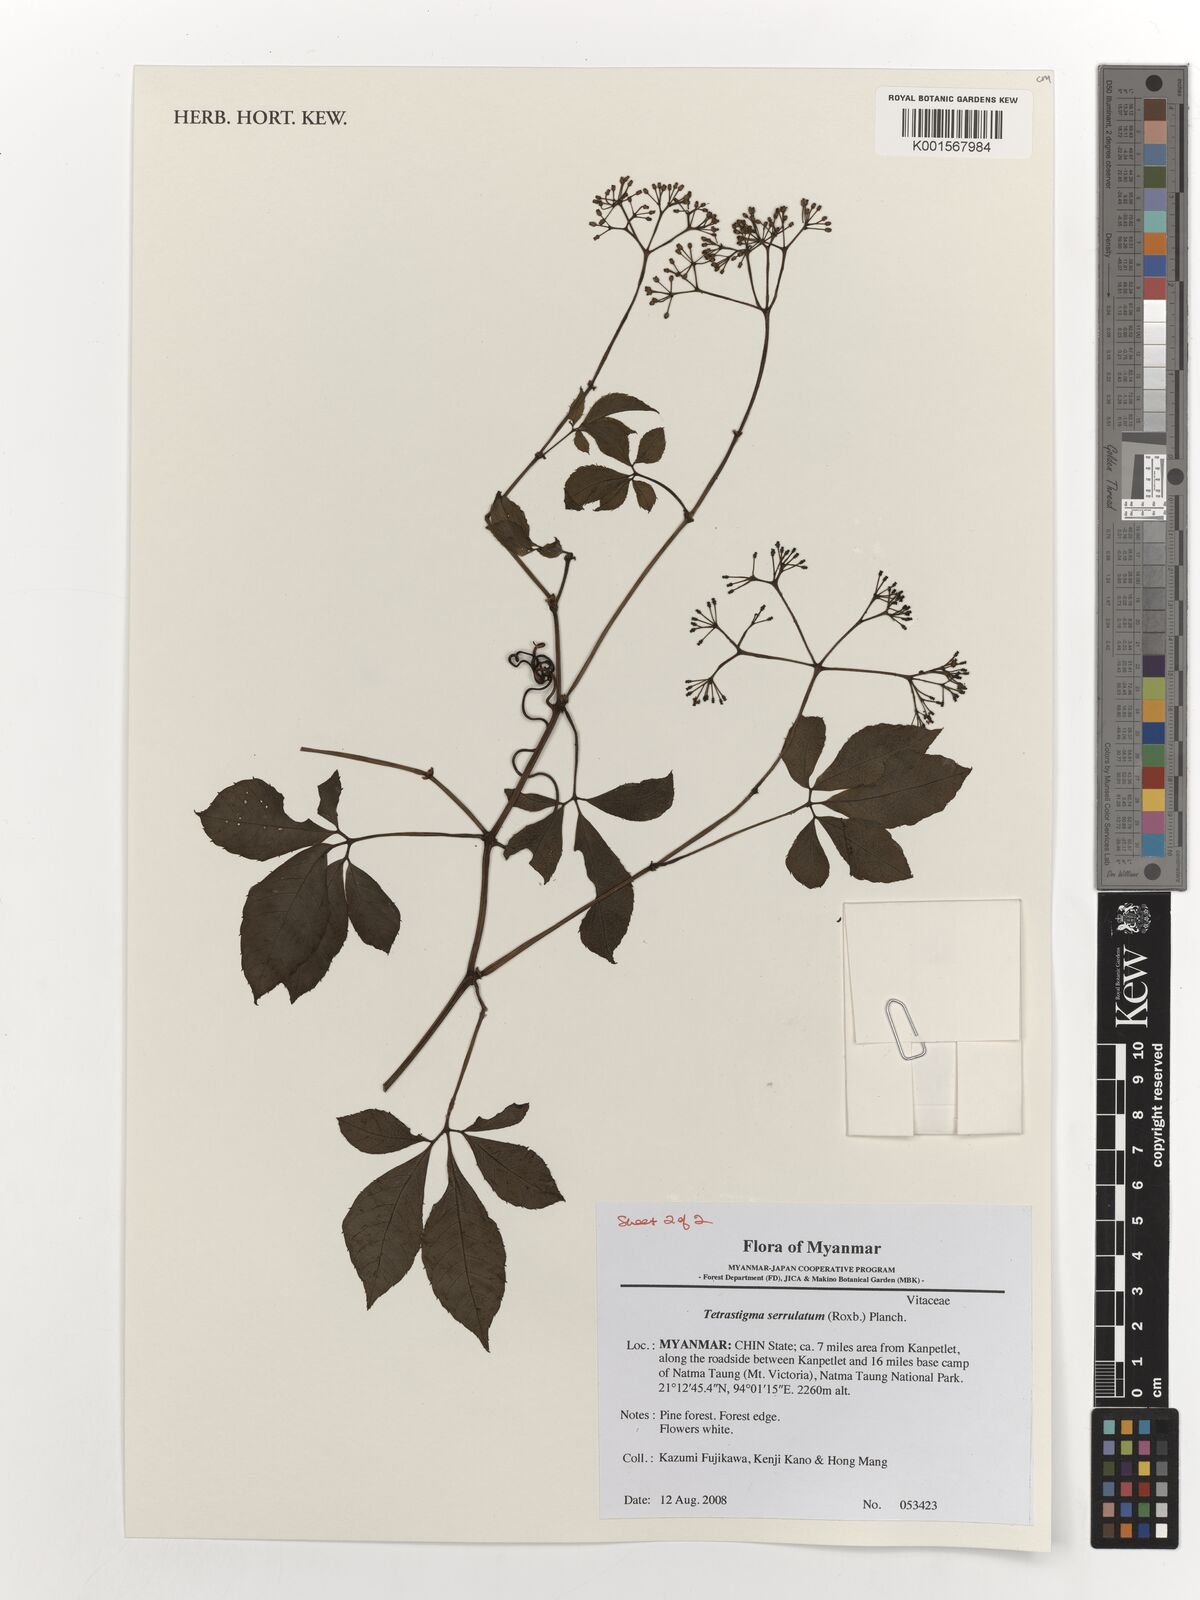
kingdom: Plantae
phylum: Tracheophyta
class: Magnoliopsida
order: Vitales
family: Vitaceae
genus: Tetrastigma
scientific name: Tetrastigma serrulatum
